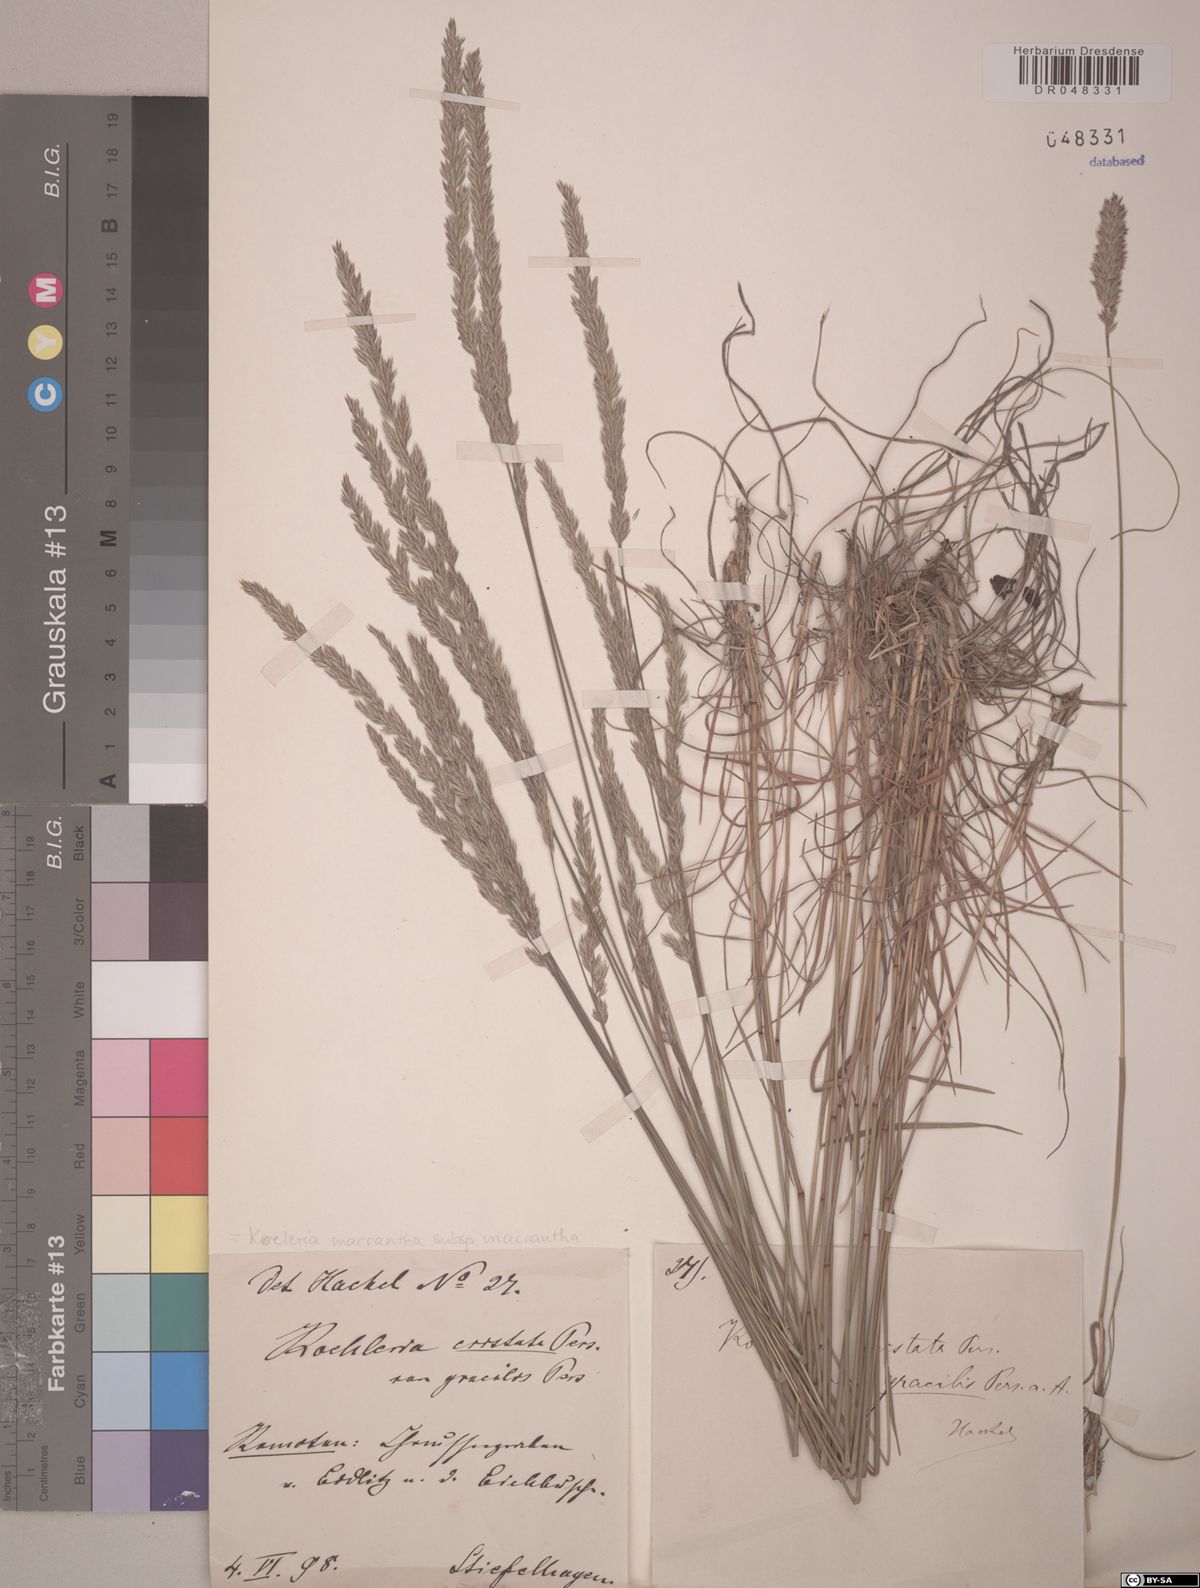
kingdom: Plantae
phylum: Tracheophyta
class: Liliopsida
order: Poales
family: Poaceae
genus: Koeleria
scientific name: Koeleria macrantha
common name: Crested hair-grass
